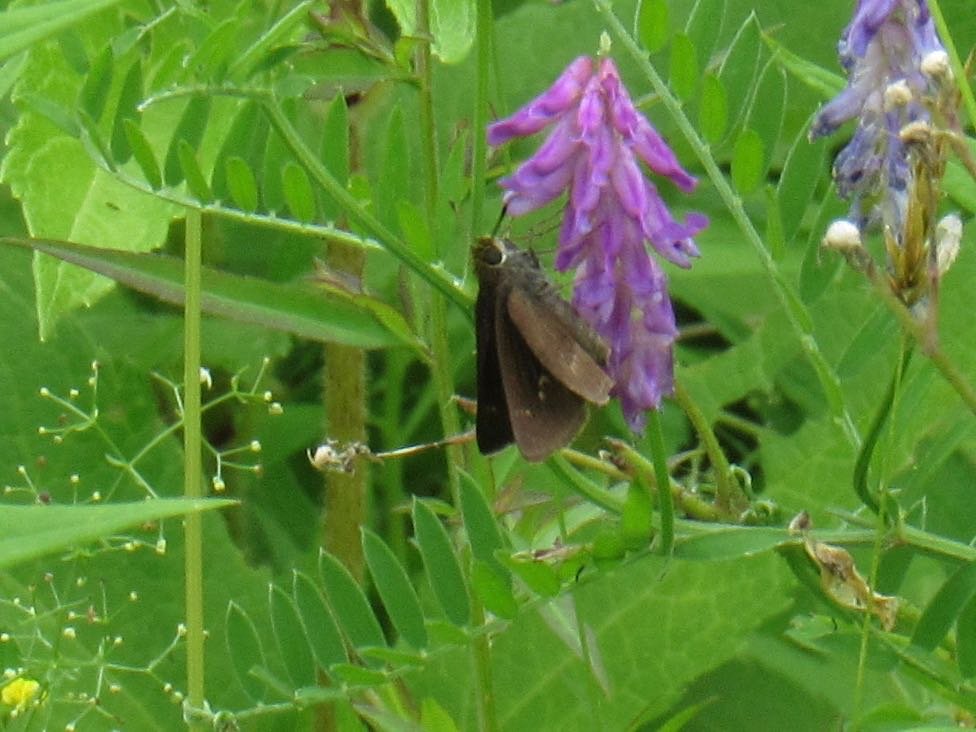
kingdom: Animalia
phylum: Arthropoda
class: Insecta
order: Lepidoptera
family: Hesperiidae
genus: Euphyes
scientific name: Euphyes vestris
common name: Dun Skipper
